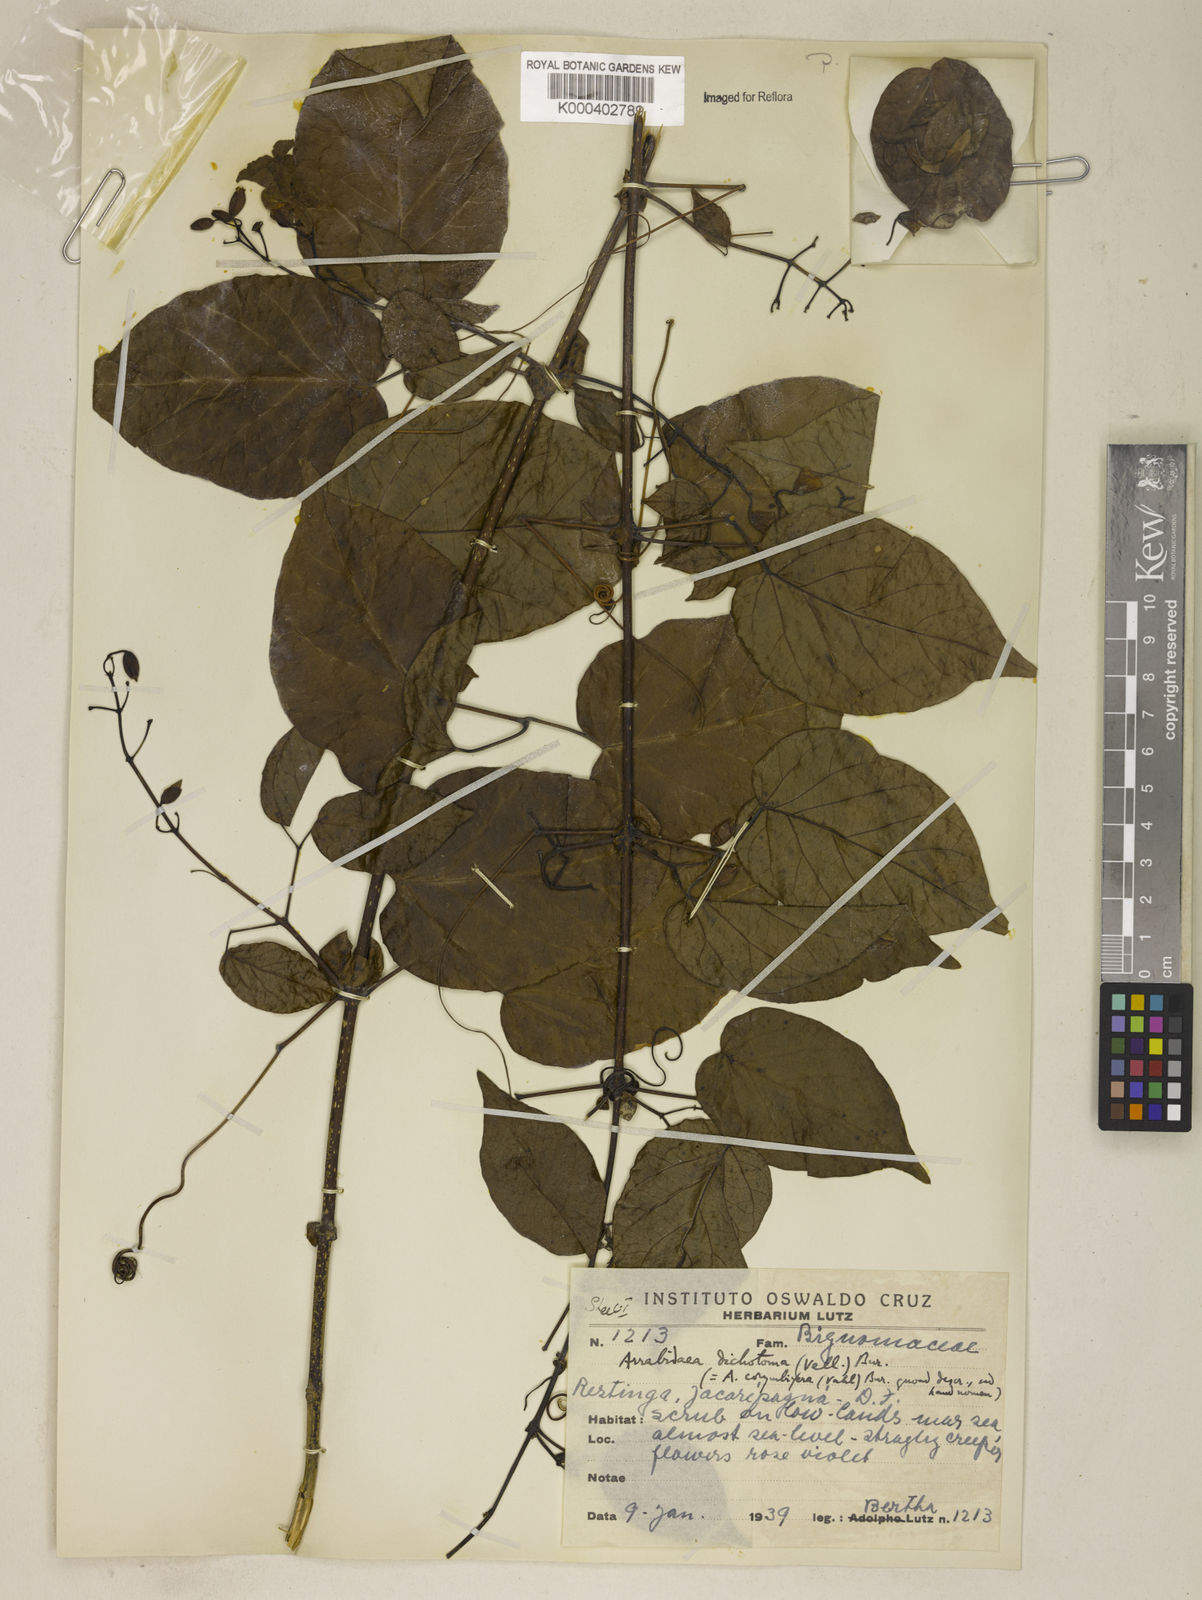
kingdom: Plantae
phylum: Tracheophyta
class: Magnoliopsida
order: Lamiales
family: Bignoniaceae
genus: Tanaecium
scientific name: Tanaecium selloi
